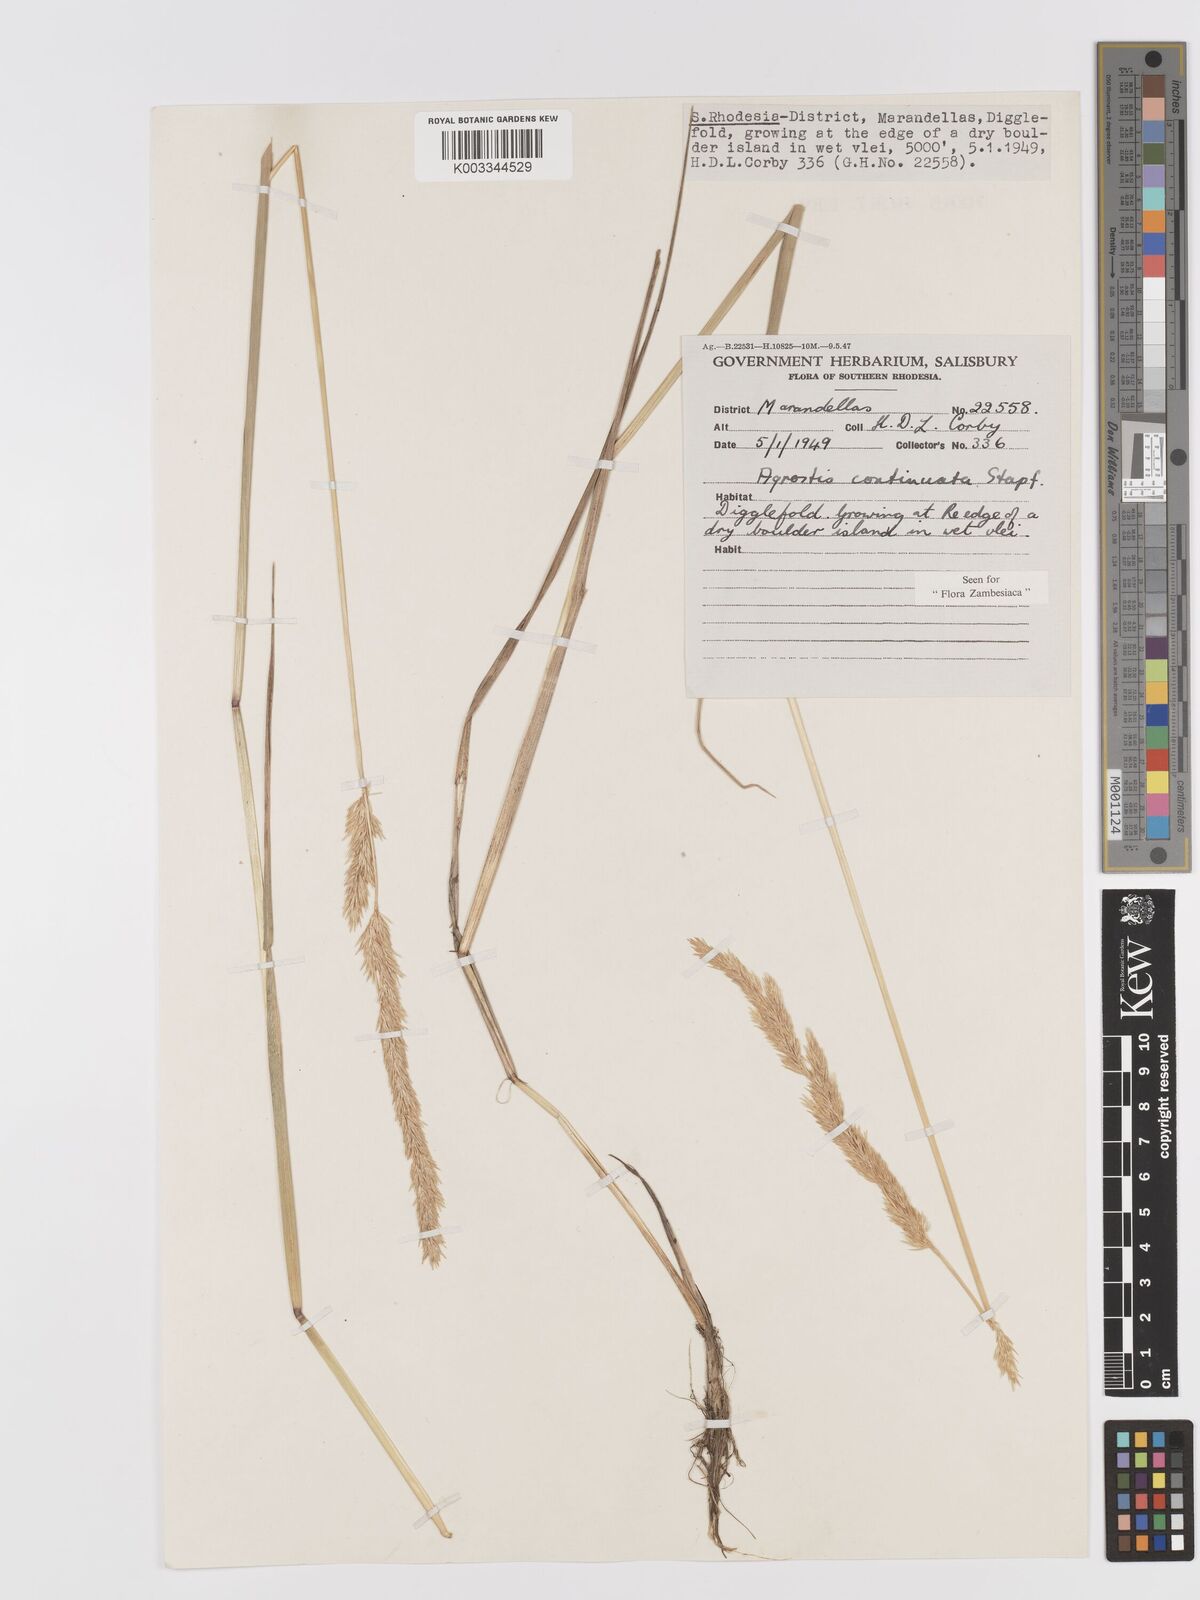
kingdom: Plantae
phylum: Tracheophyta
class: Liliopsida
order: Poales
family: Poaceae
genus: Agrostis
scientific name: Agrostis continuata
